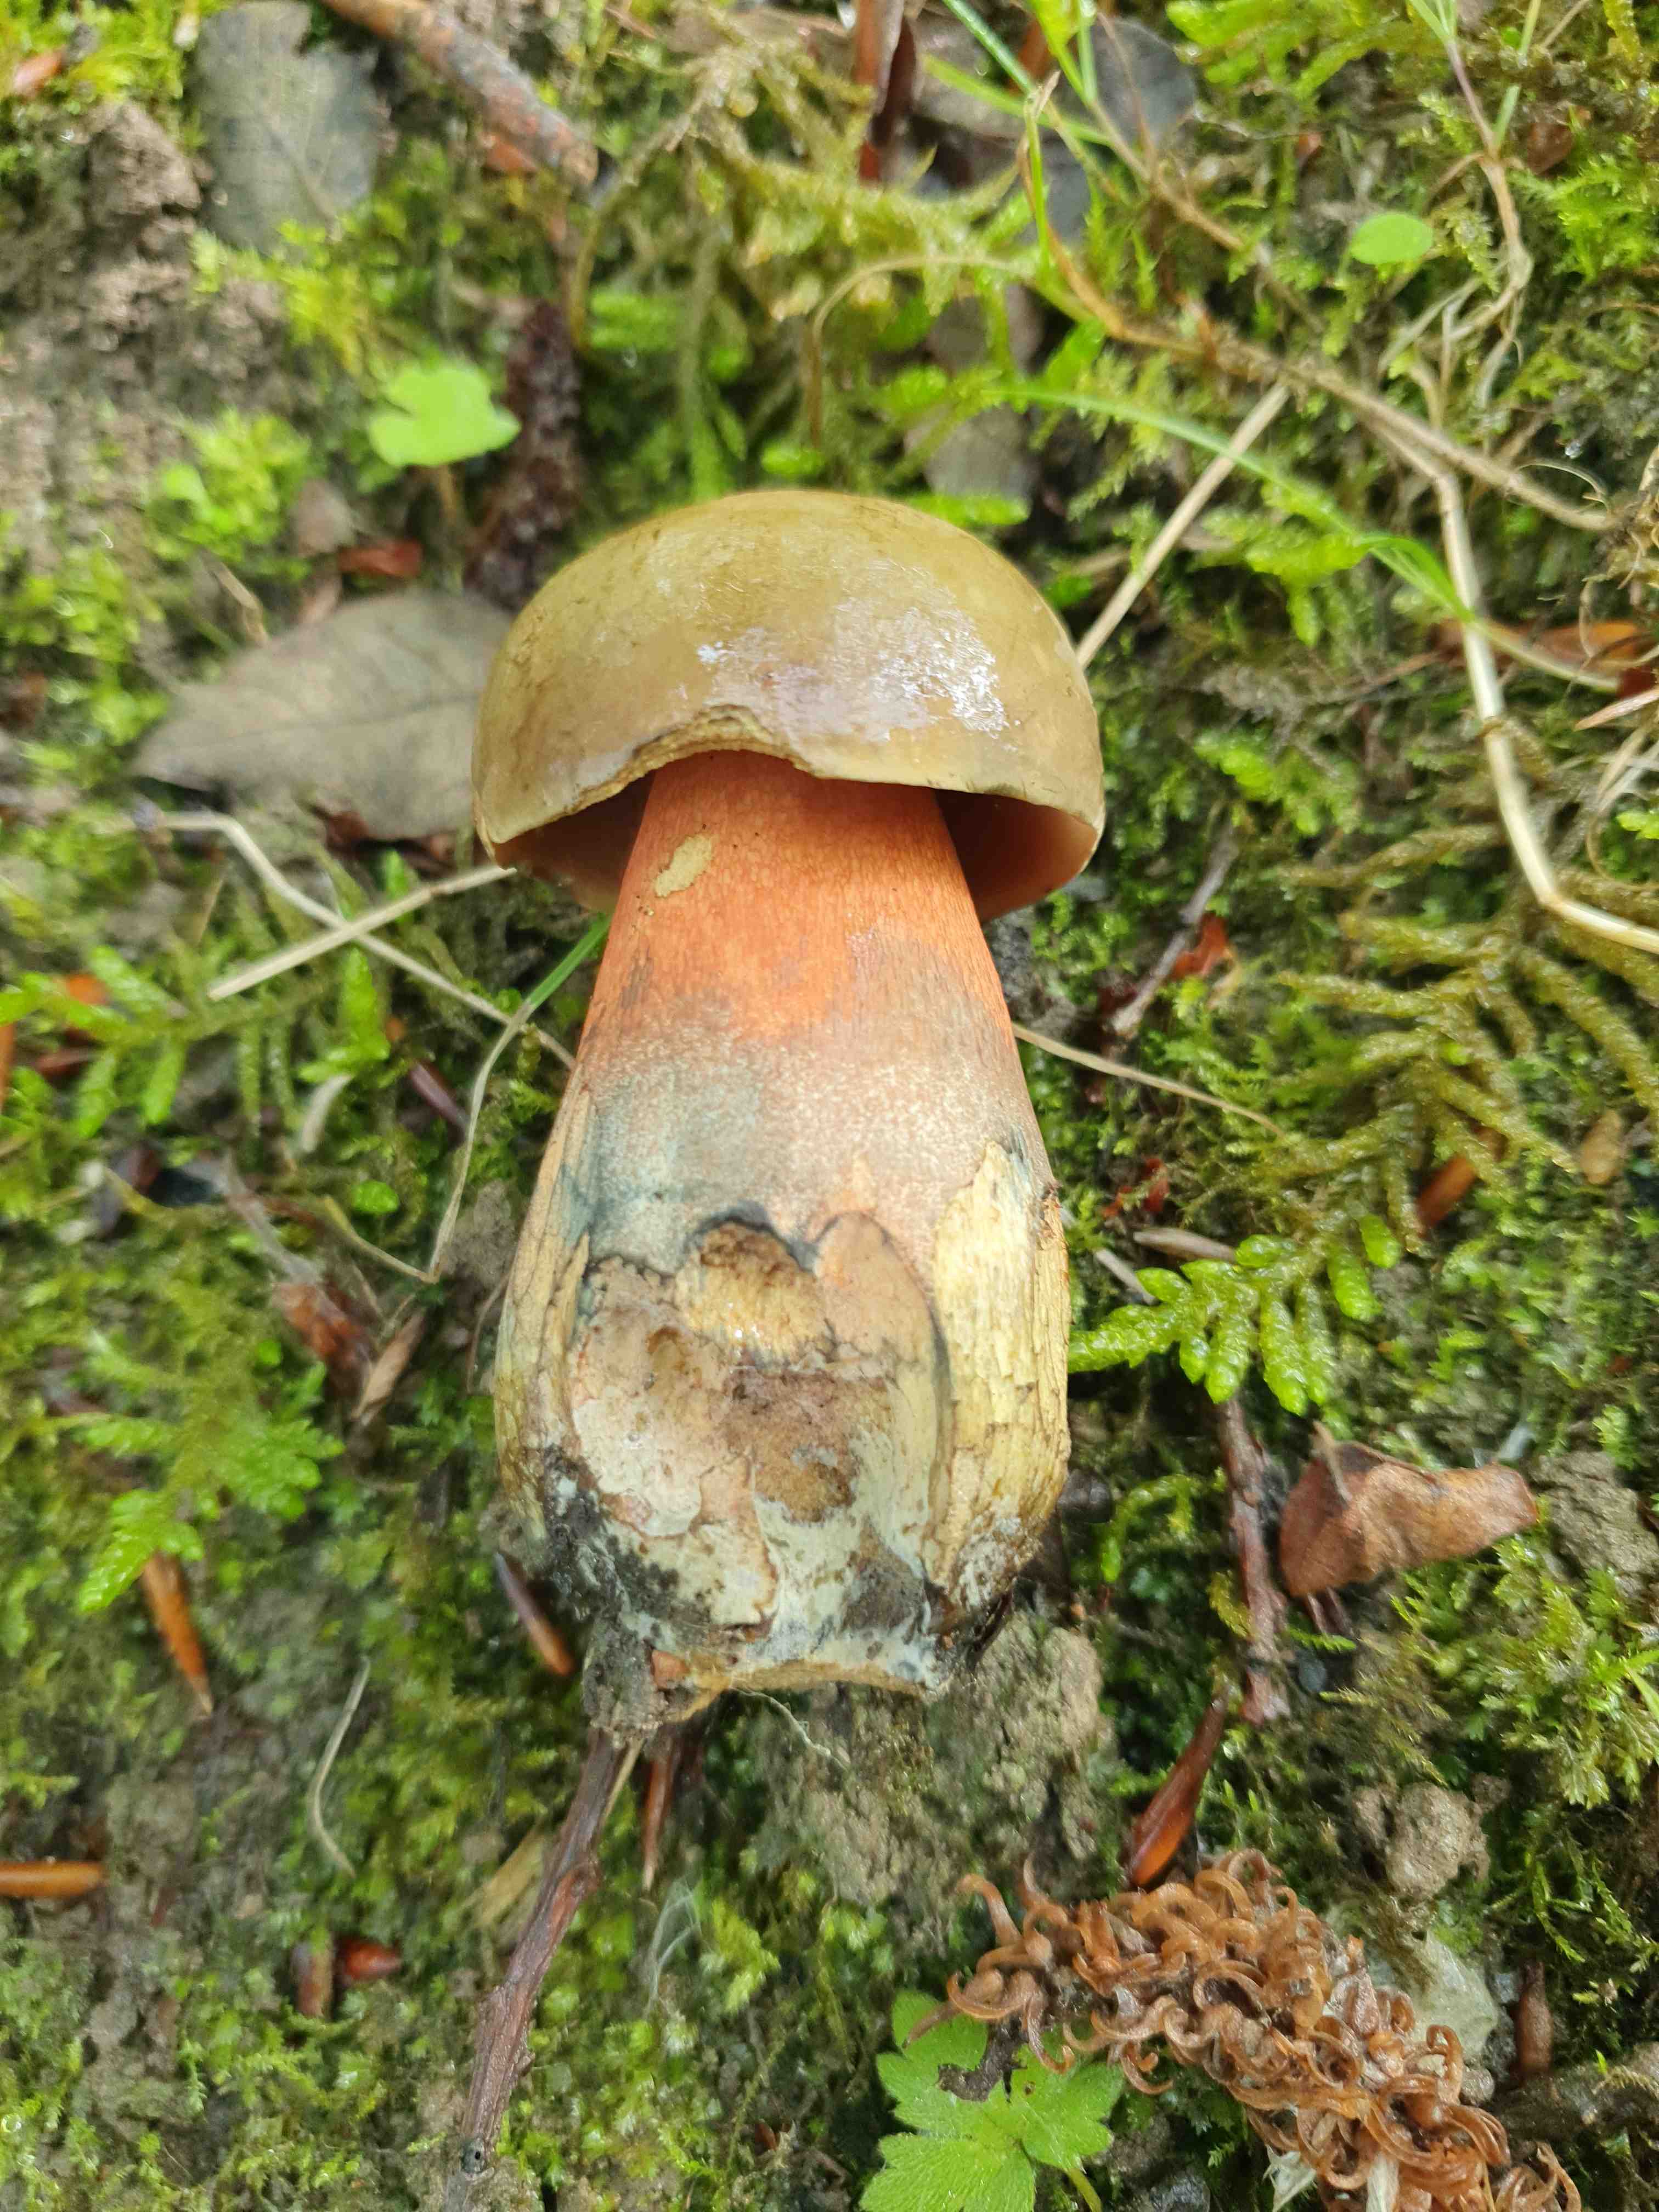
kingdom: Fungi
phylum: Basidiomycota
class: Agaricomycetes
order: Boletales
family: Boletaceae
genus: Neoboletus
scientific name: Neoboletus erythropus
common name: punktstokket indigorørhat
